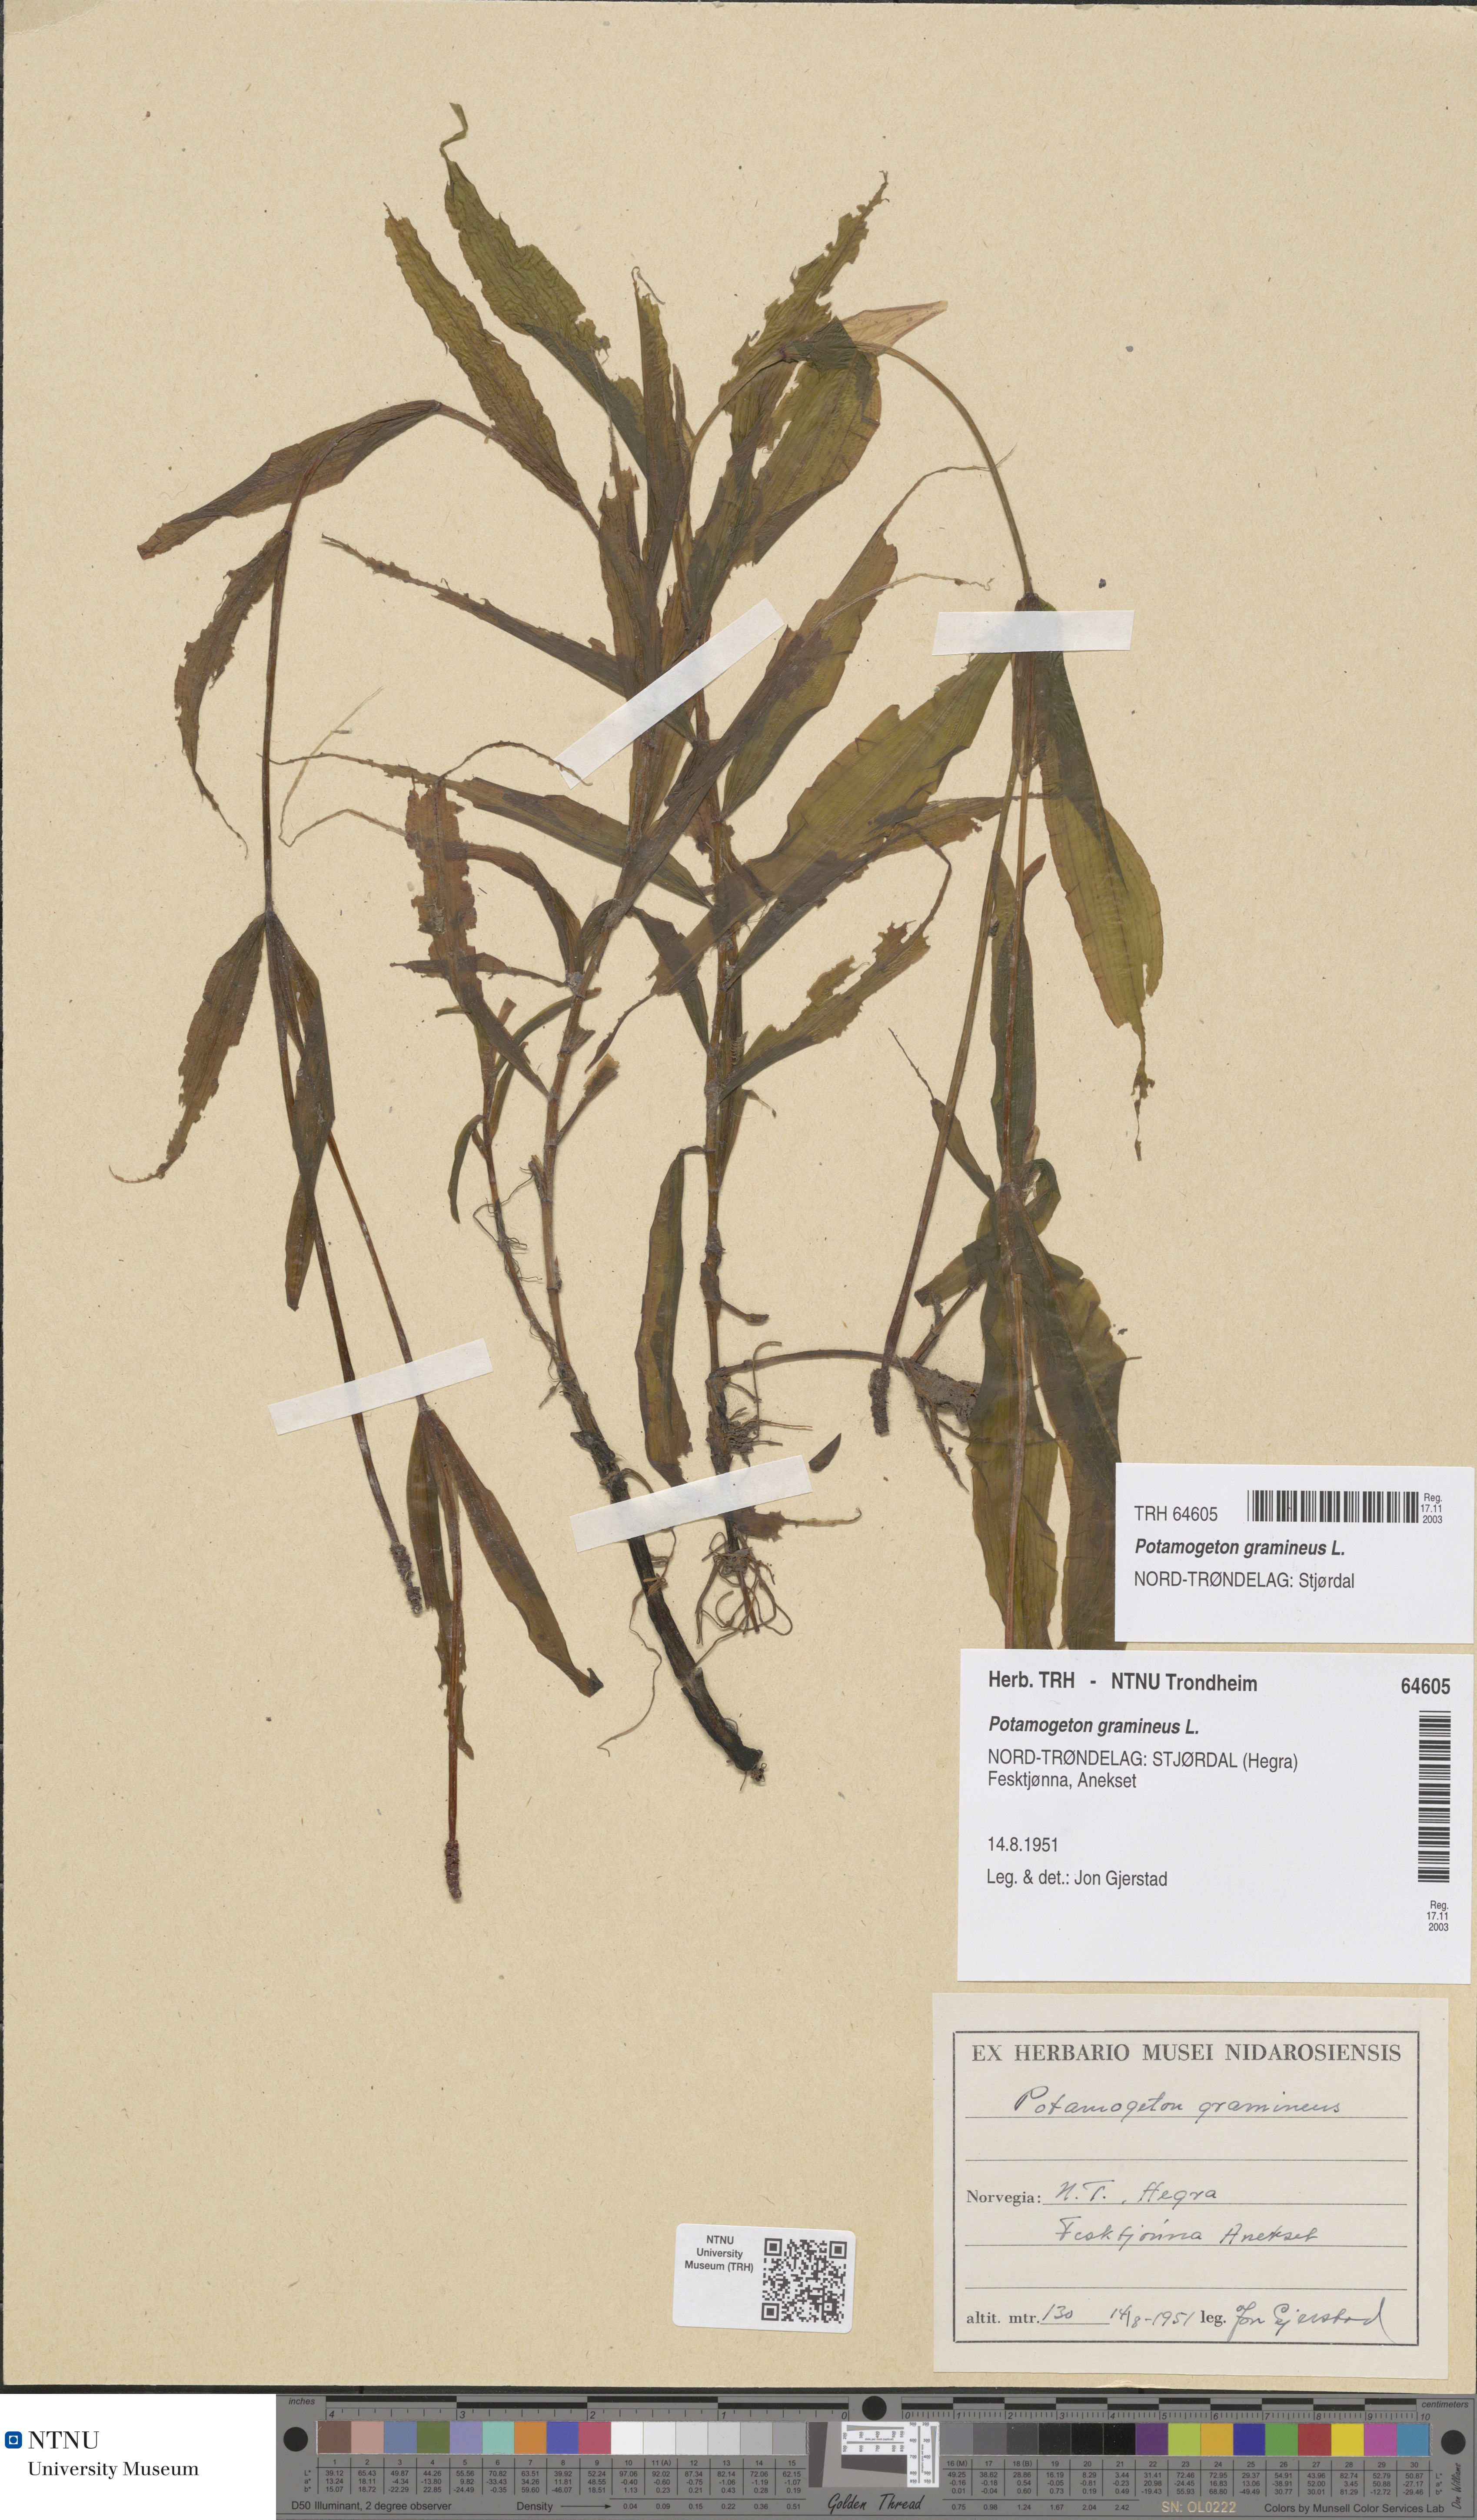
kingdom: Plantae
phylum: Tracheophyta
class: Liliopsida
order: Alismatales
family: Potamogetonaceae
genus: Potamogeton
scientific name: Potamogeton alpinus
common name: Red pondweed
